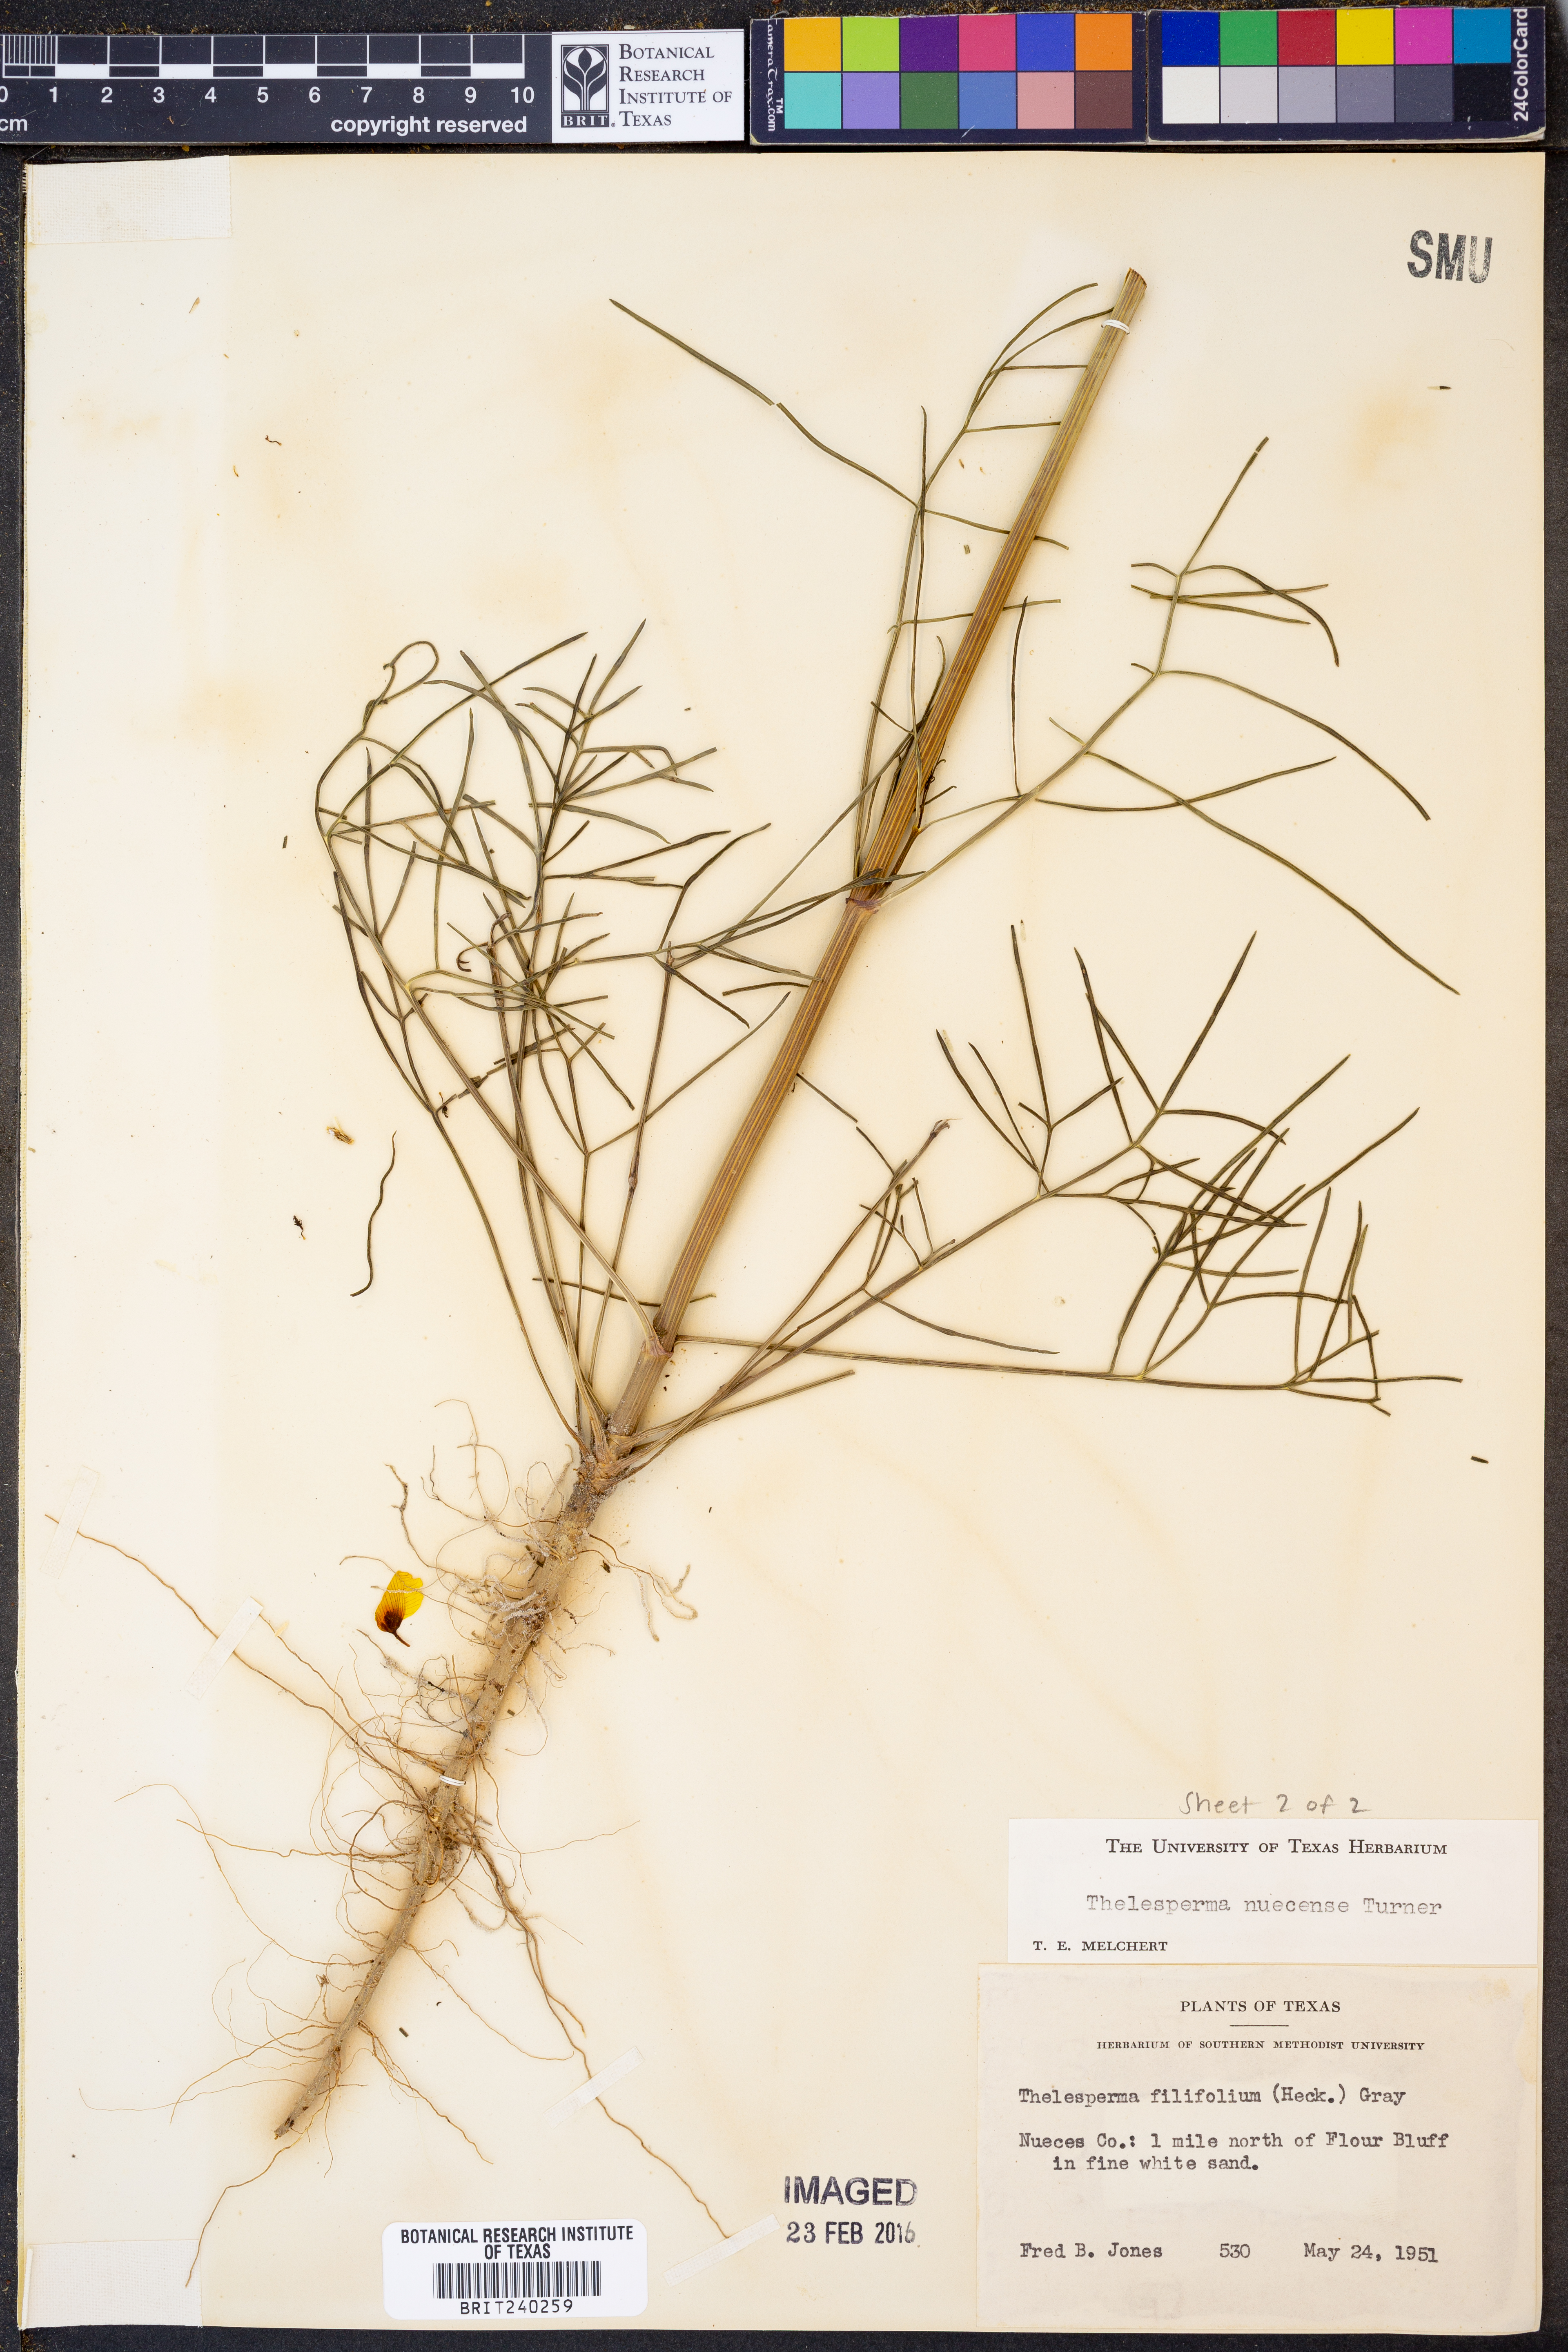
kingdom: Plantae
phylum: Tracheophyta
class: Magnoliopsida
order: Asterales
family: Asteraceae
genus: Thelesperma
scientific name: Thelesperma nuecense
